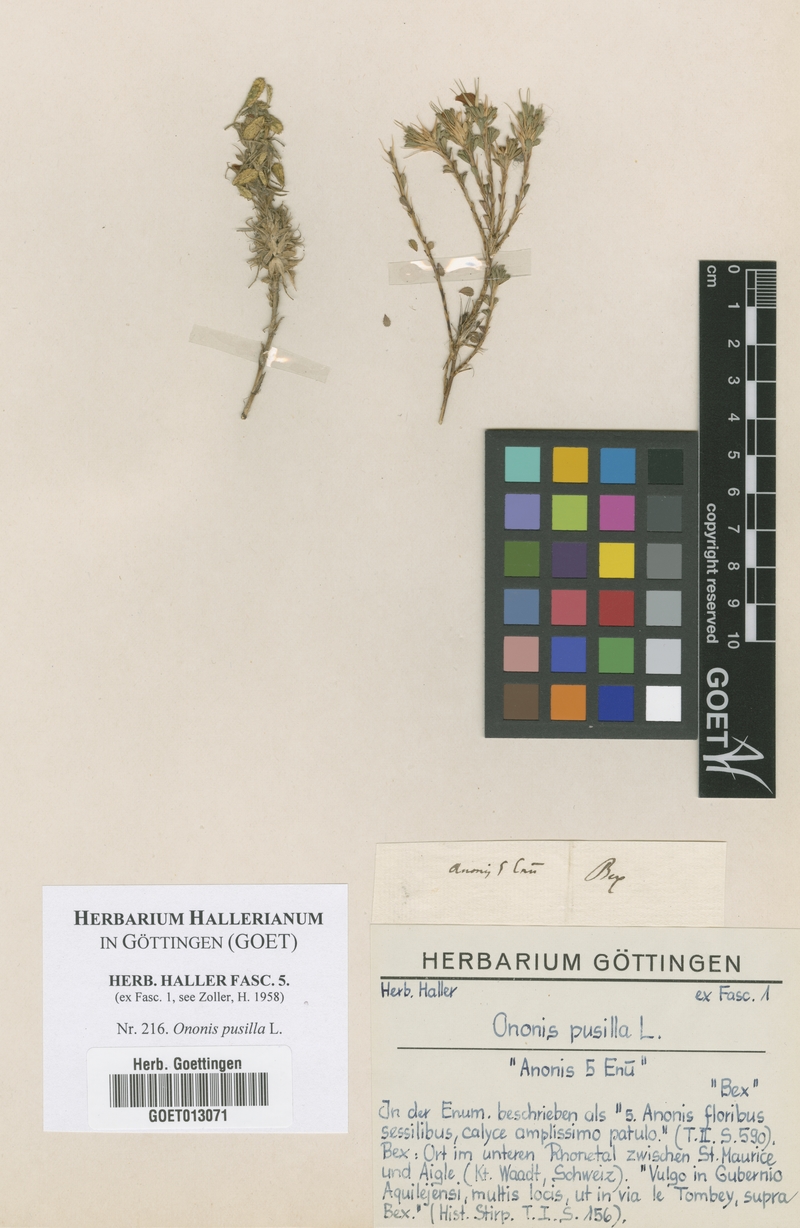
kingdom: Plantae
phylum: Tracheophyta
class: Magnoliopsida
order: Fabales
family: Fabaceae
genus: Ononis
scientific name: Ononis pusilla
